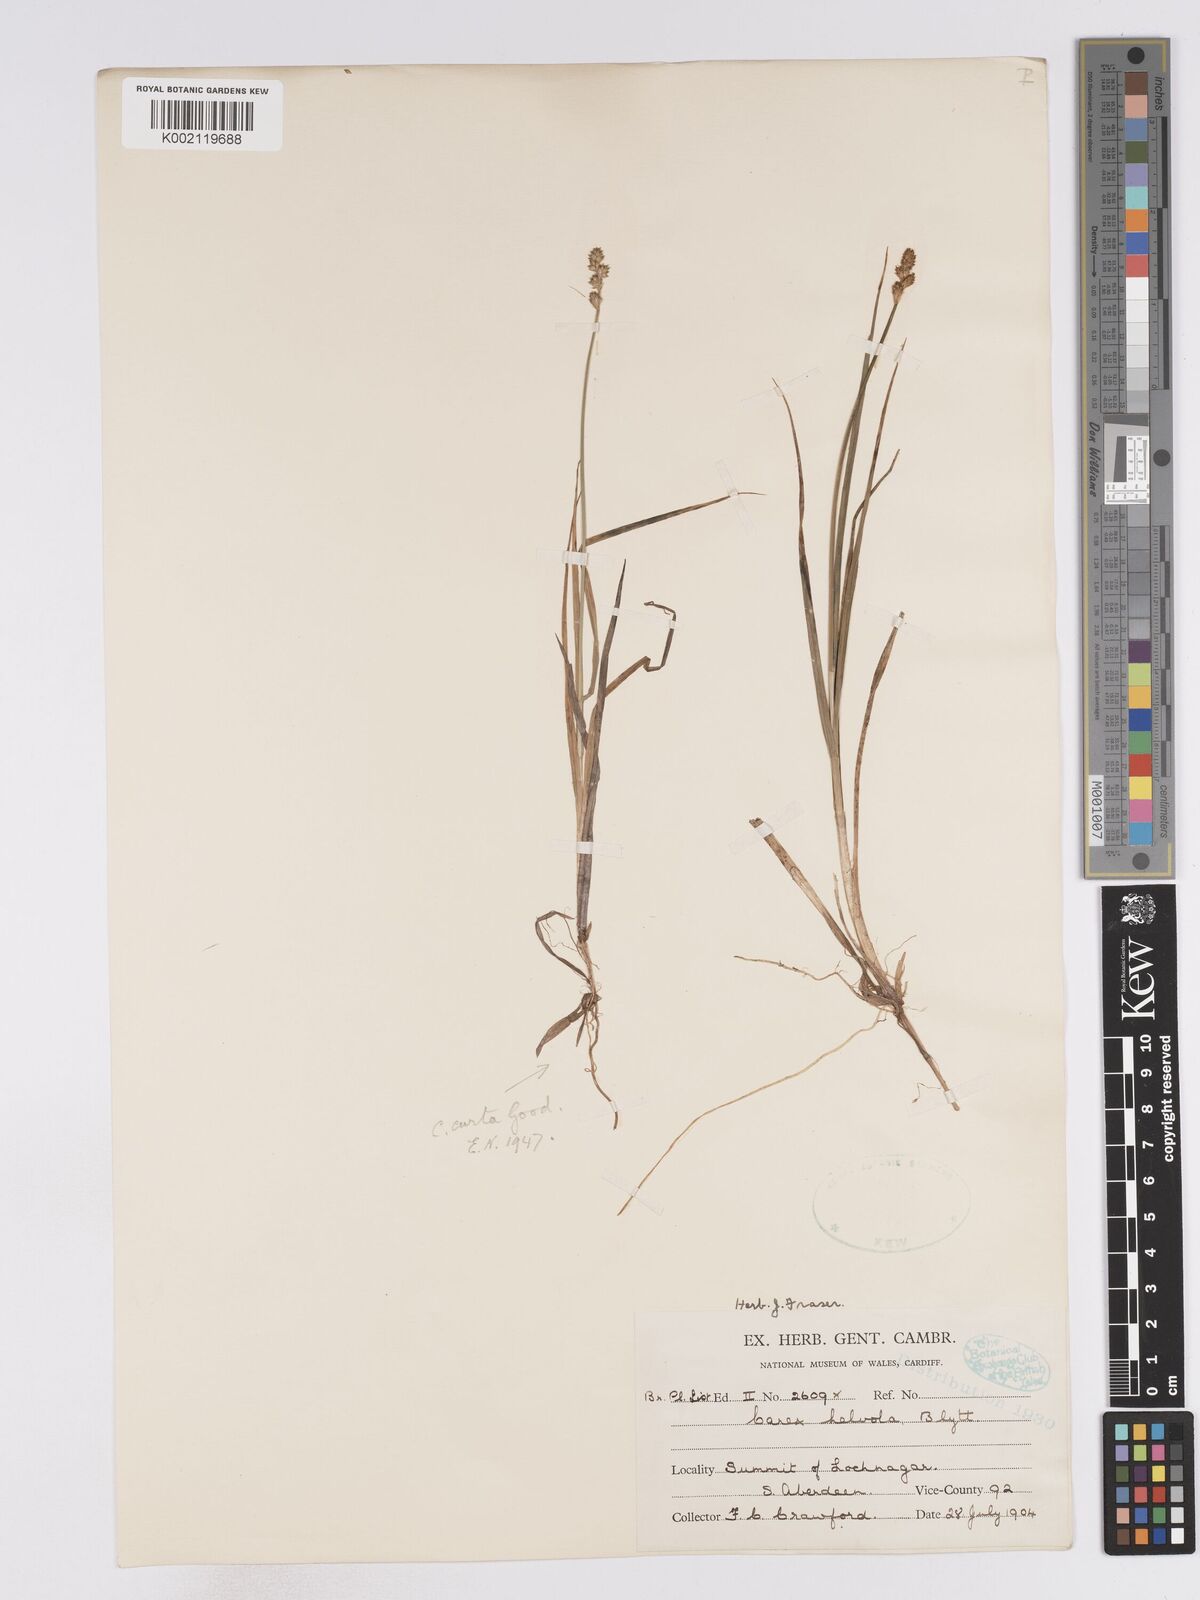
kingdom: Plantae
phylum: Tracheophyta
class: Liliopsida
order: Poales
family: Cyperaceae
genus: Carex
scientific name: Carex curta
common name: White sedge
